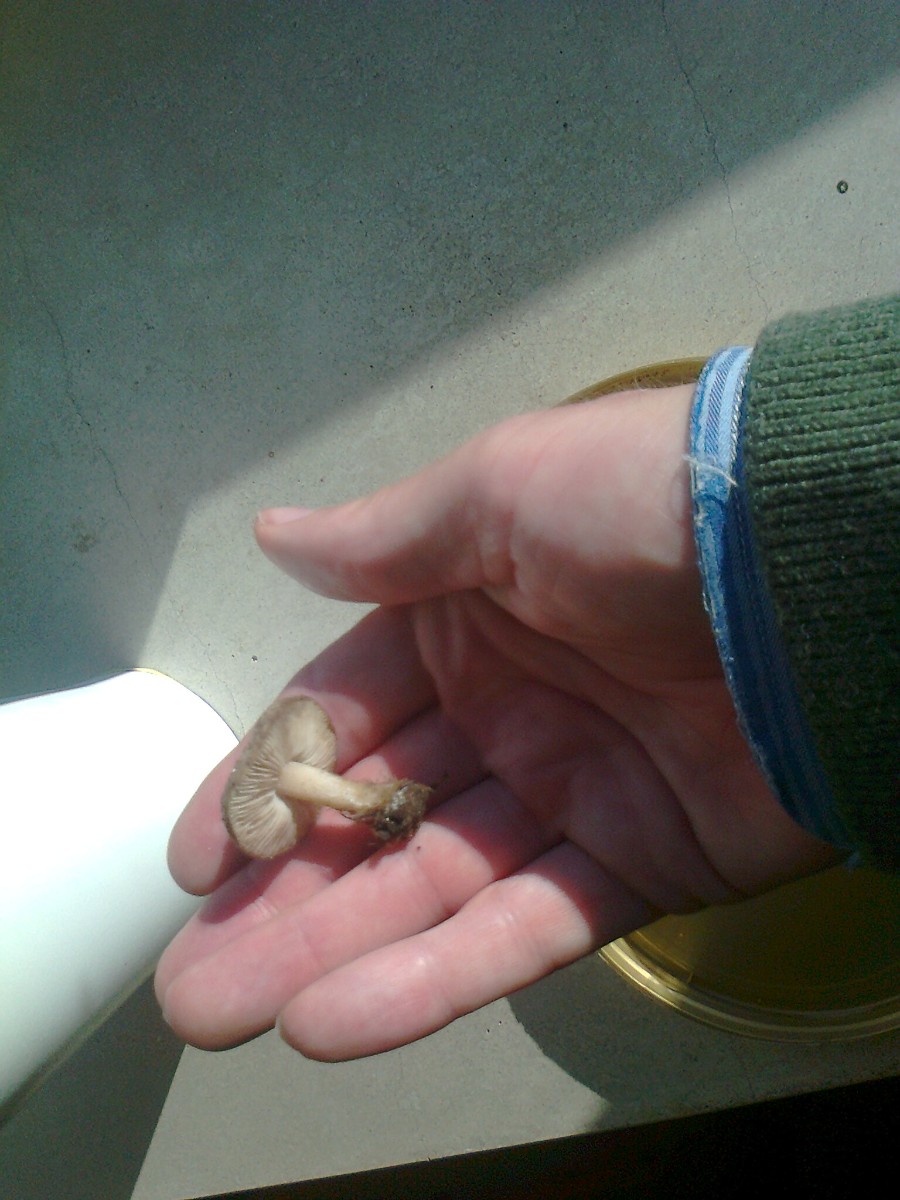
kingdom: Fungi
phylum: Basidiomycota
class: Agaricomycetes
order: Agaricales
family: Tricholomataceae
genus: Melanoleuca
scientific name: Melanoleuca
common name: munkehat
